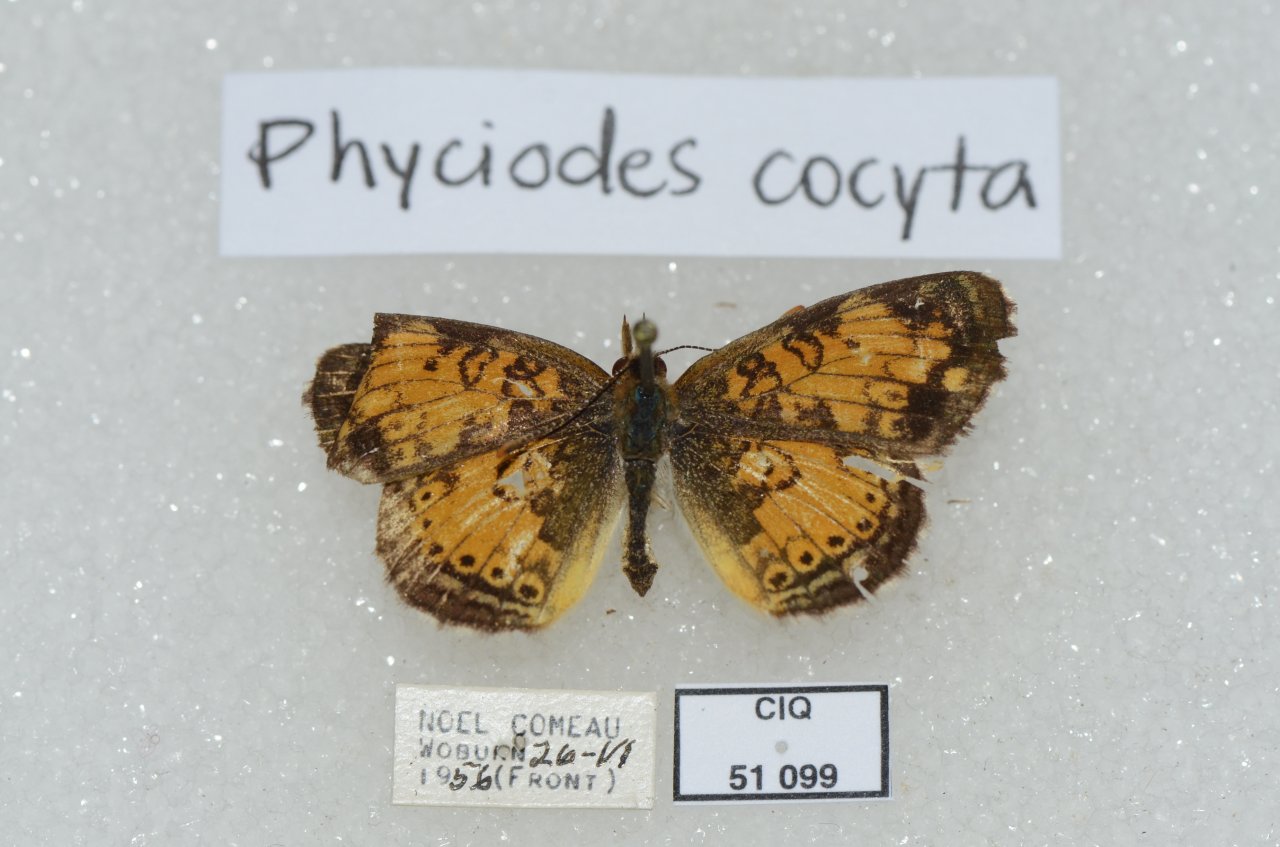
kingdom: Animalia
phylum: Arthropoda
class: Insecta
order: Lepidoptera
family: Nymphalidae
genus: Phyciodes
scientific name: Phyciodes tharos
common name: Northern Crescent
